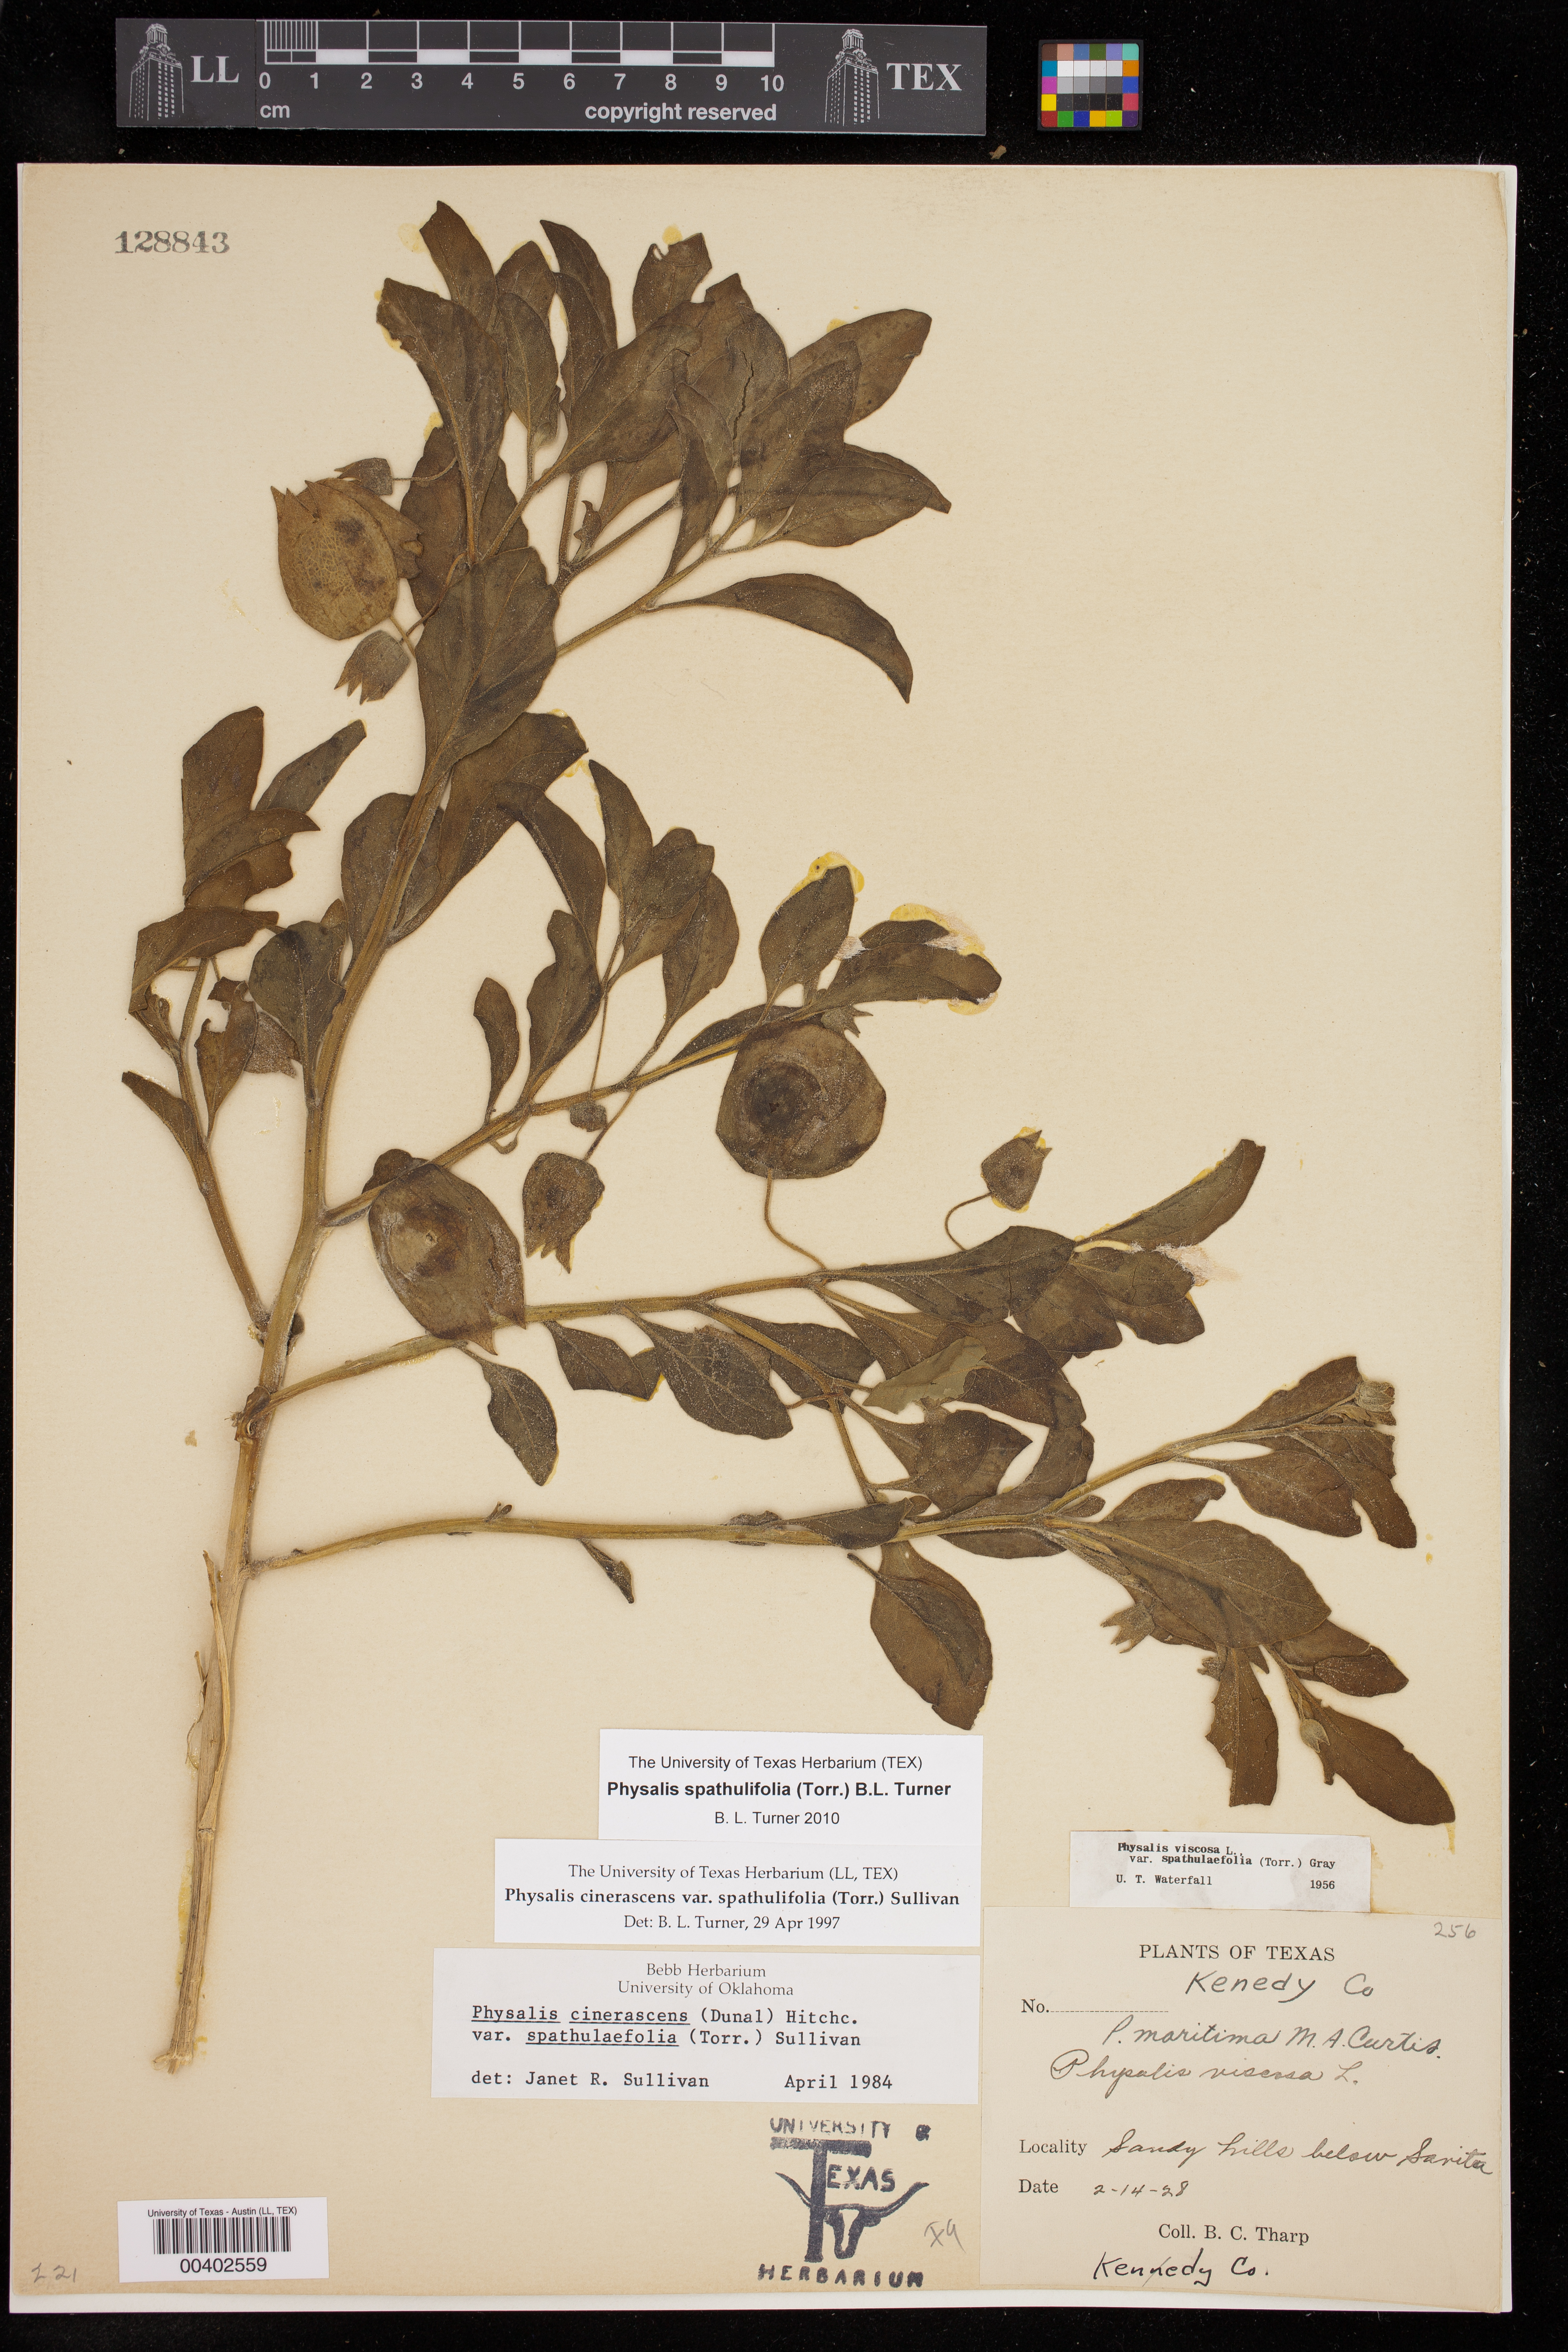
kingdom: Plantae
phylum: Tracheophyta
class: Magnoliopsida
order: Solanales
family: Solanaceae
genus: Physalis
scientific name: Physalis cinerascens
